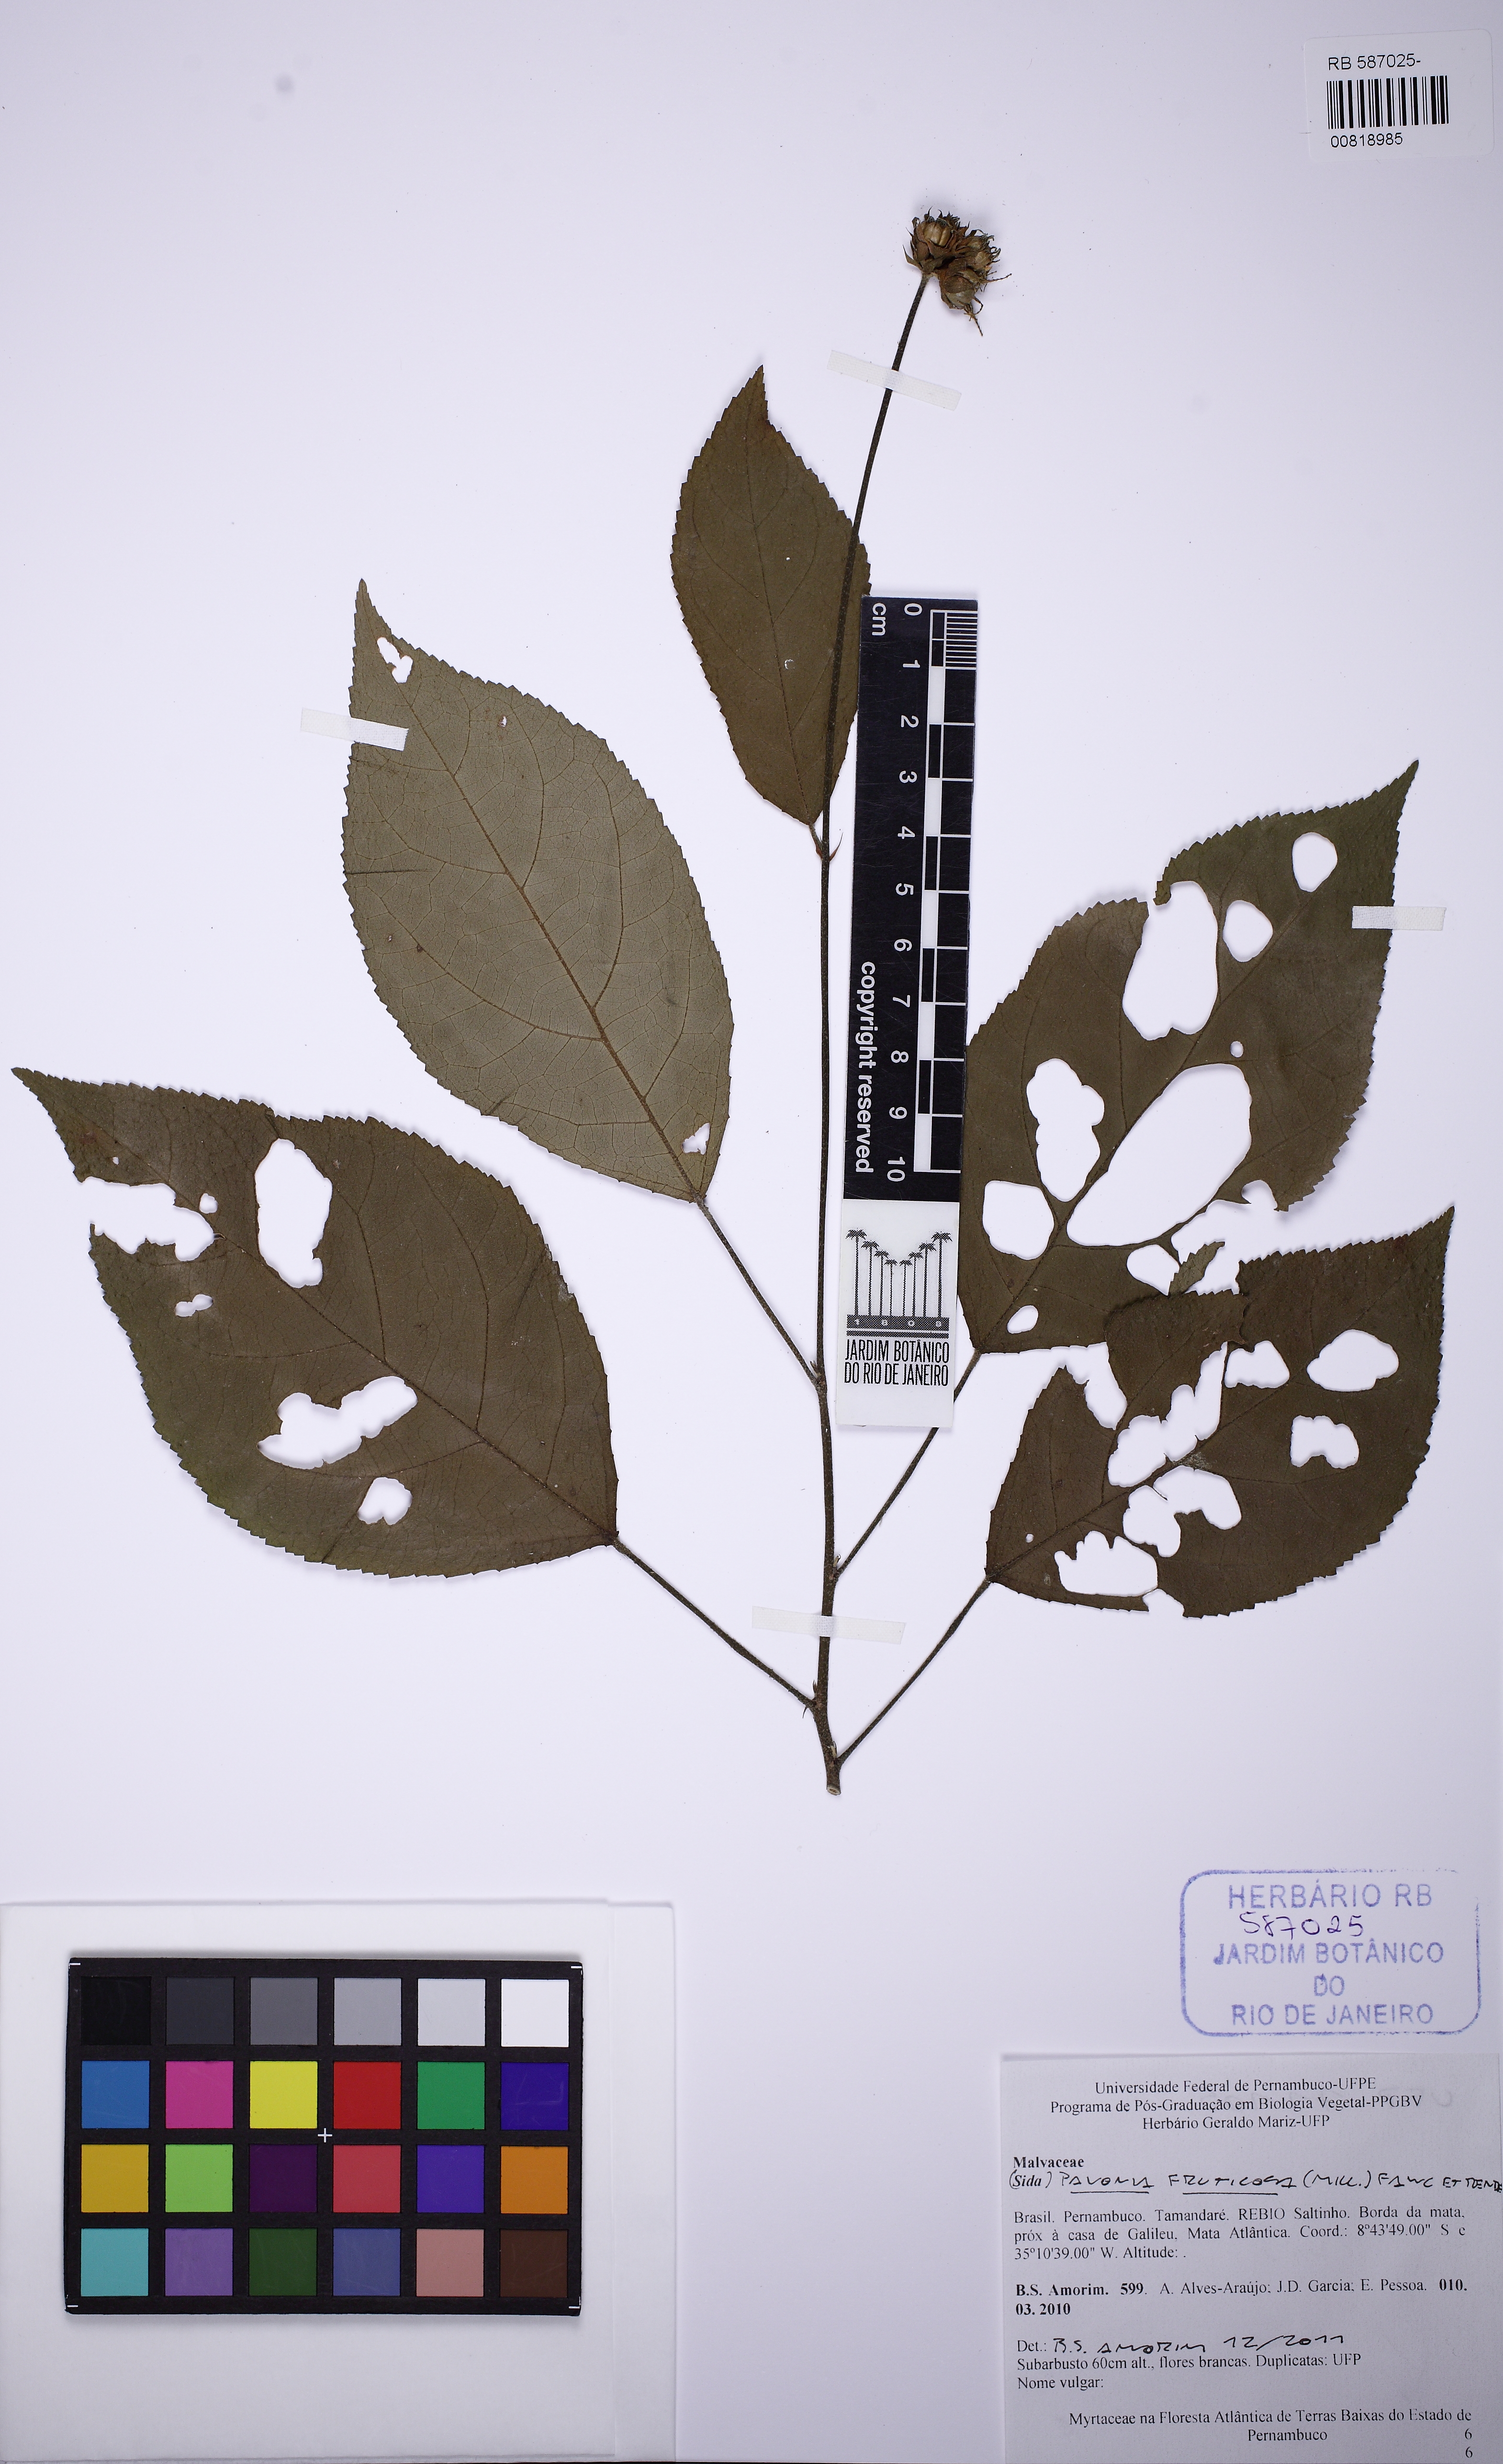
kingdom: Plantae
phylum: Tracheophyta
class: Magnoliopsida
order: Malvales
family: Malvaceae
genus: Pavonia
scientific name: Pavonia fruticosa
